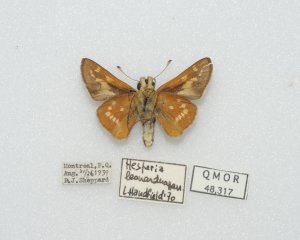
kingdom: Animalia
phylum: Arthropoda
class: Insecta
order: Lepidoptera
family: Hesperiidae
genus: Hesperia
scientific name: Hesperia leonardus
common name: Leonard's Skipper
